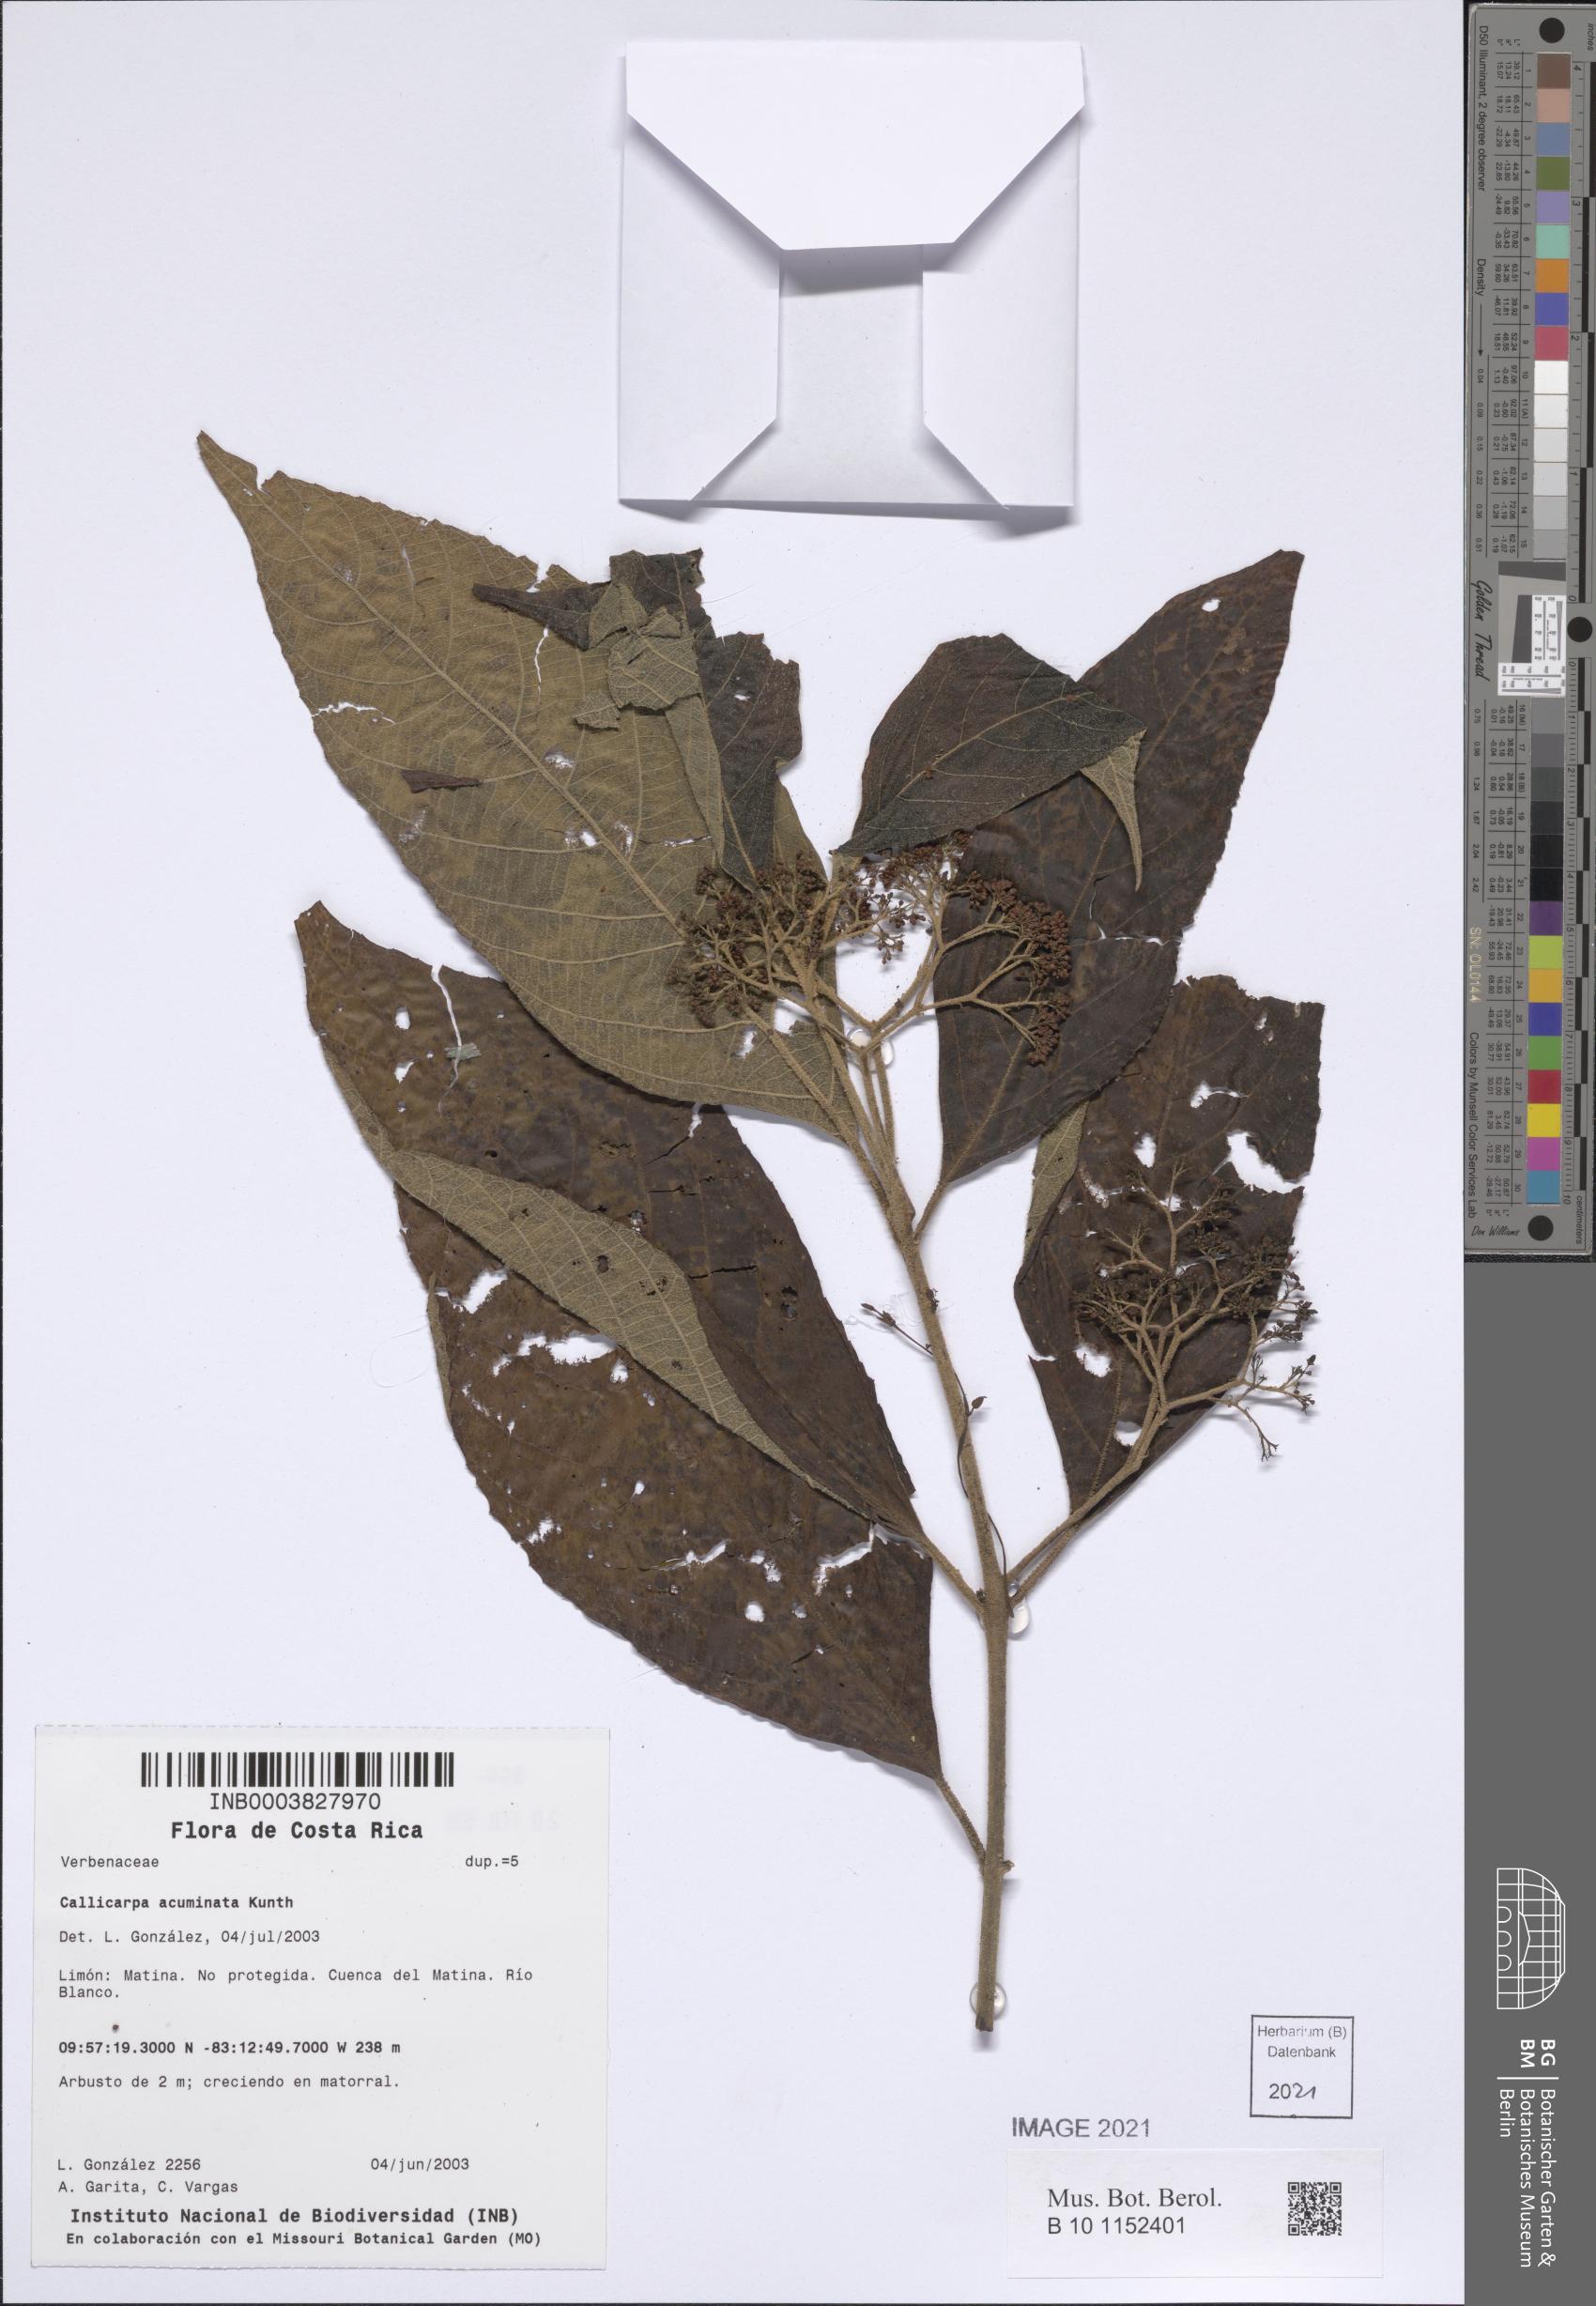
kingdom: Plantae
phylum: Tracheophyta
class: Magnoliopsida
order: Lamiales
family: Lamiaceae
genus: Callicarpa
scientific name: Callicarpa acuminata
